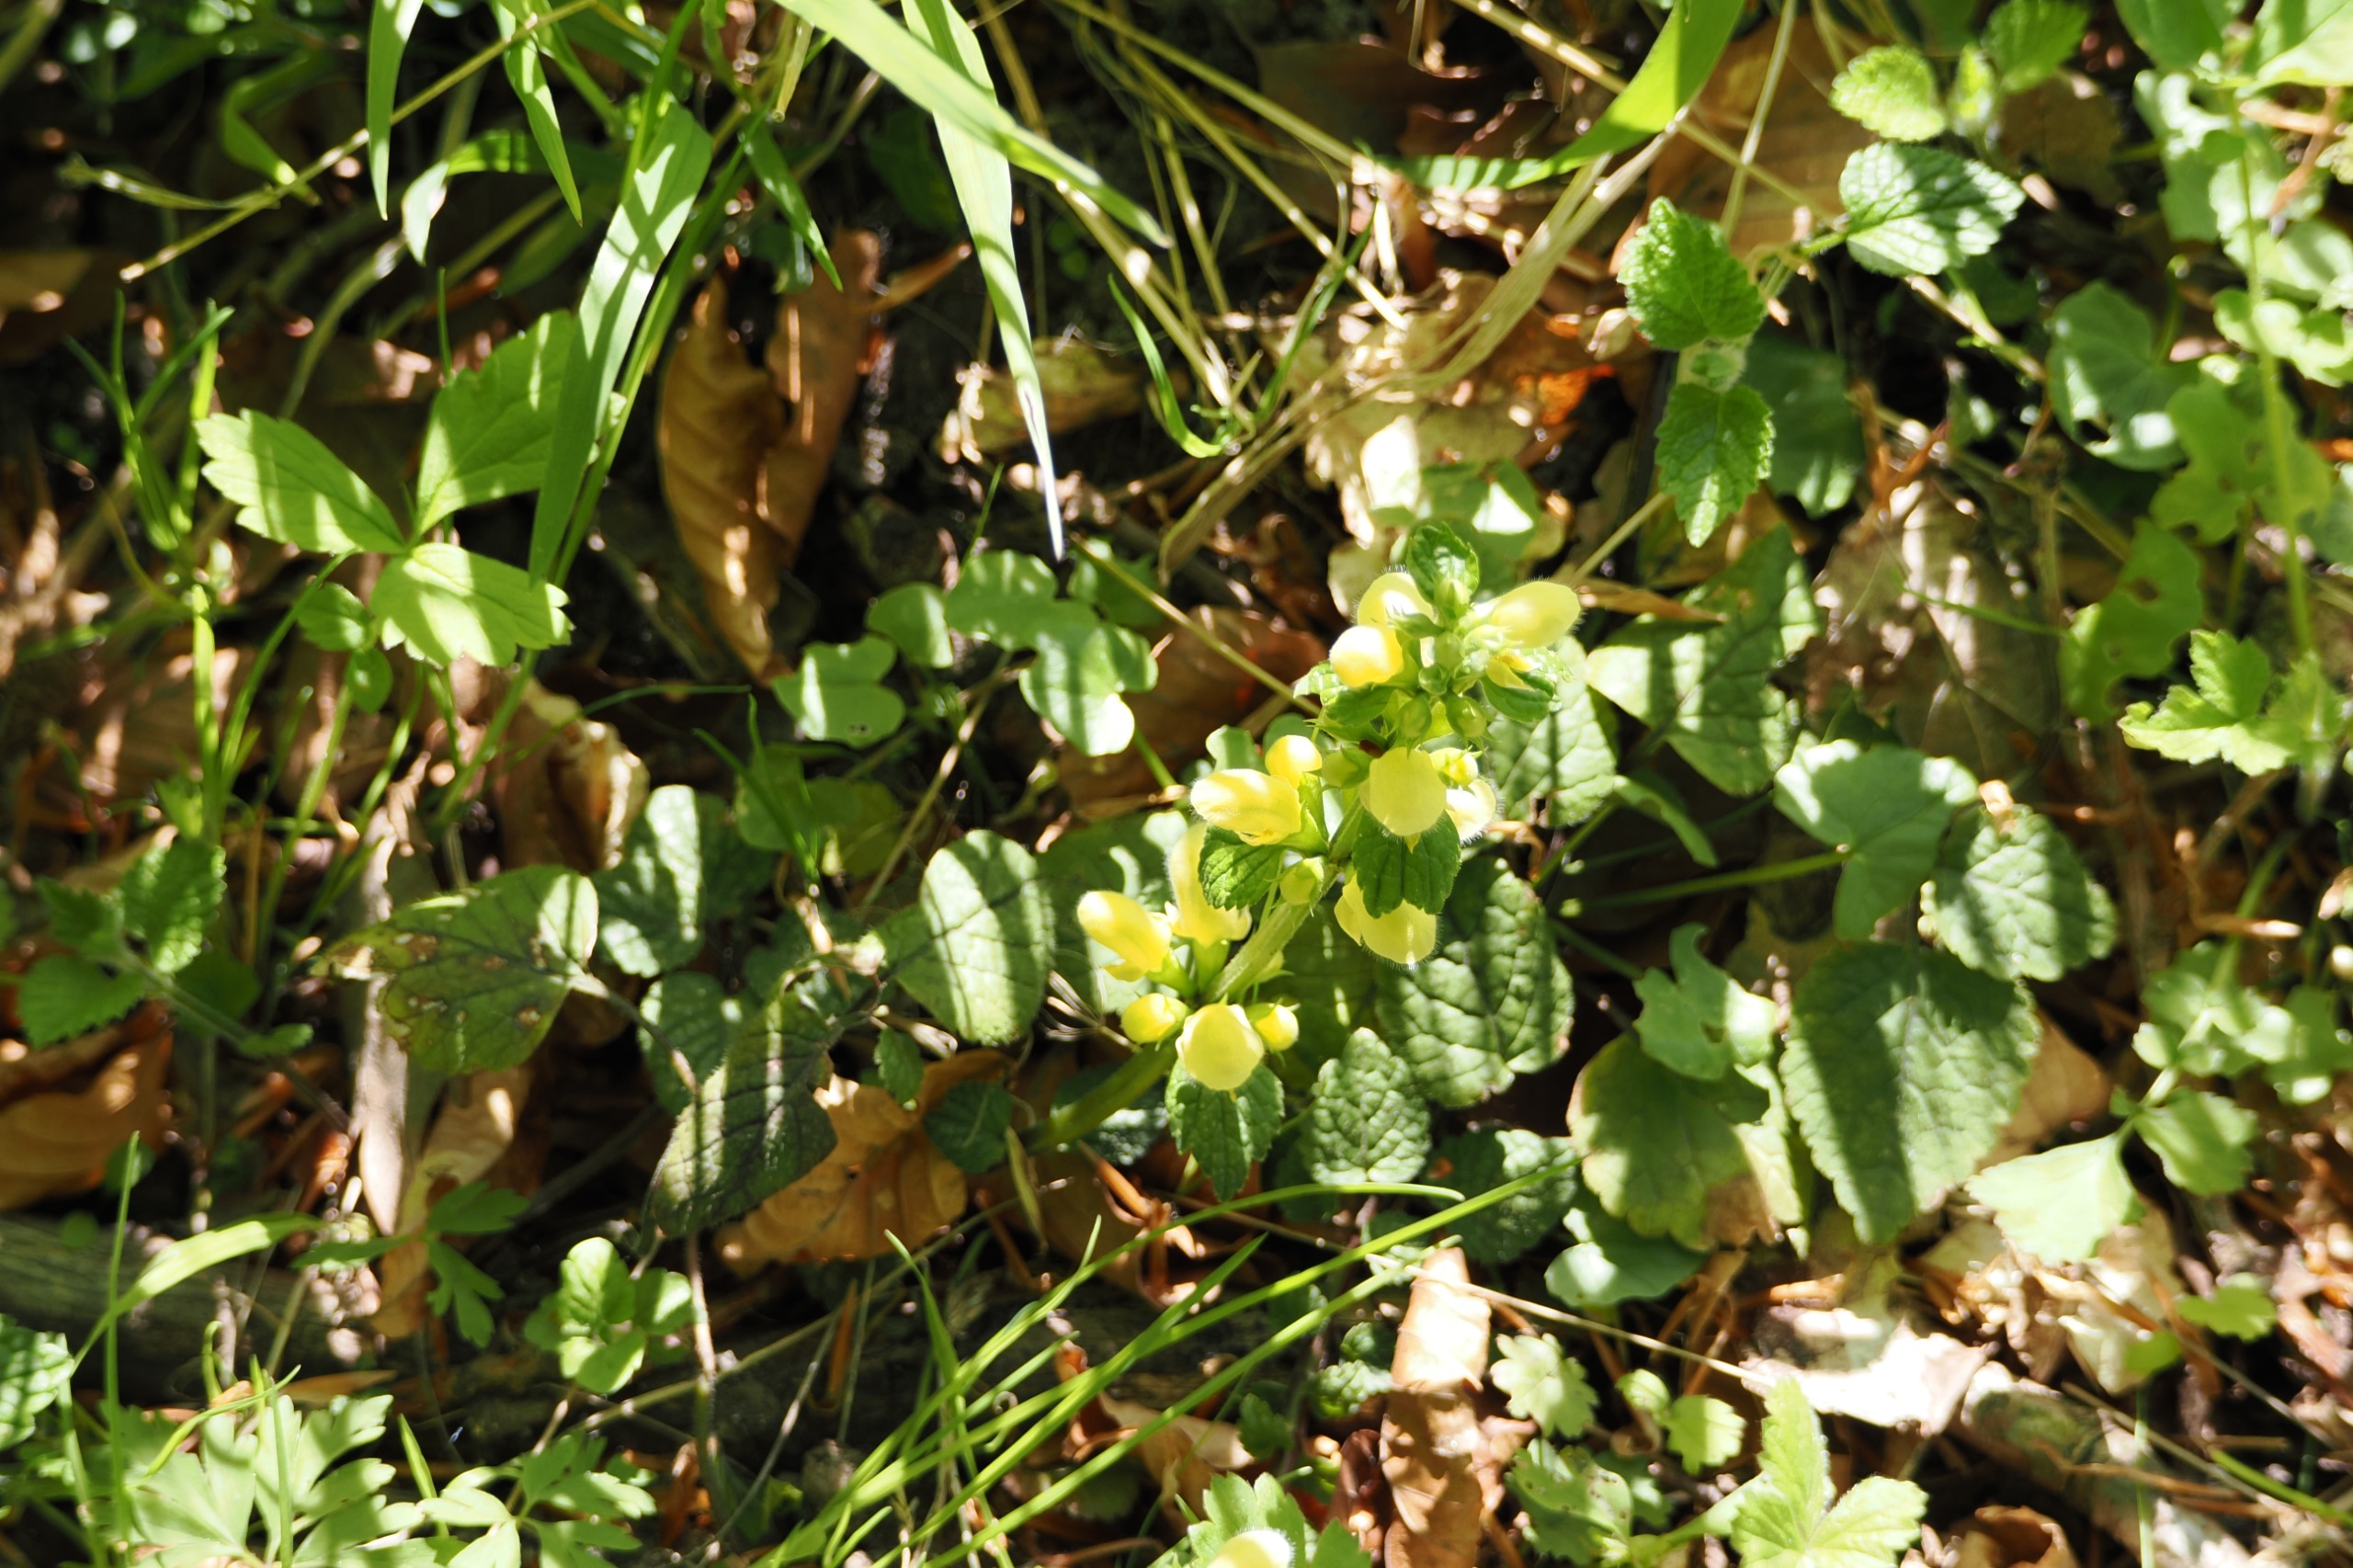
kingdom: Plantae
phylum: Tracheophyta
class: Magnoliopsida
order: Lamiales
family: Lamiaceae
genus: Lamium
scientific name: Lamium galeobdolon
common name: Almindelig guldnælde
